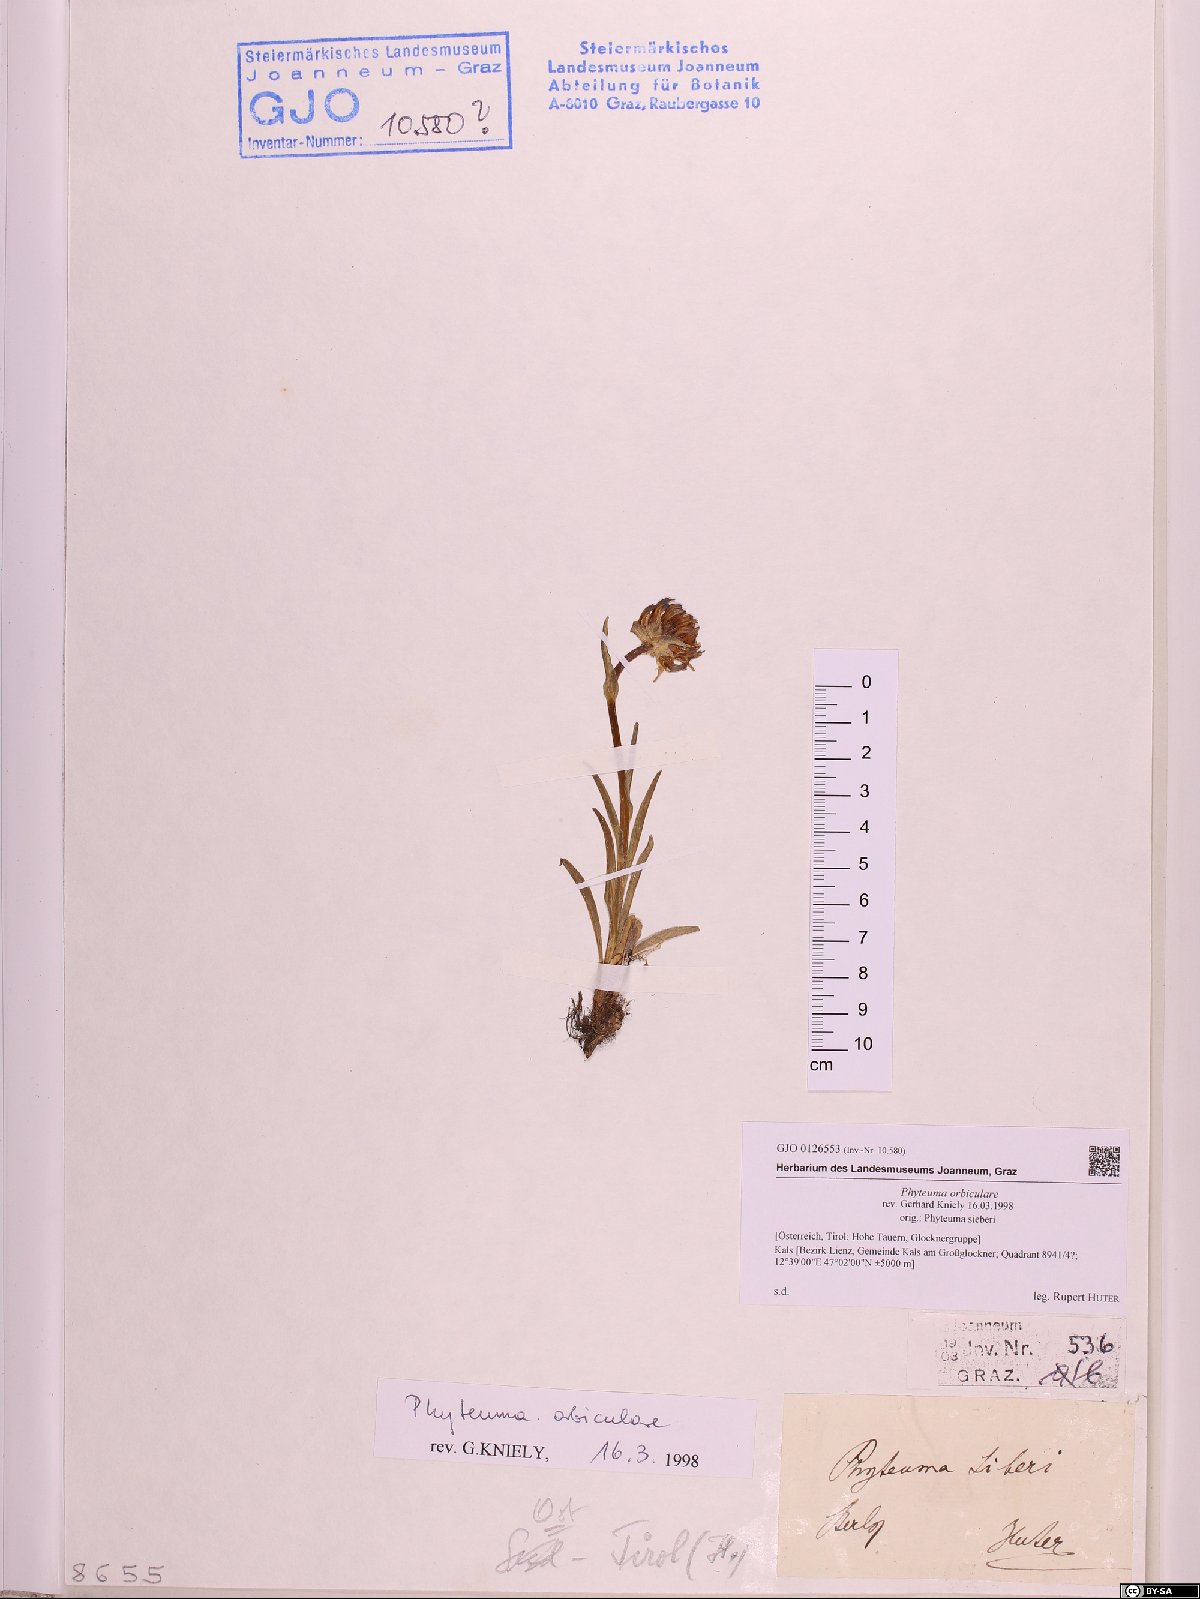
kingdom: Plantae
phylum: Tracheophyta
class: Magnoliopsida
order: Asterales
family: Campanulaceae
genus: Phyteuma
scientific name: Phyteuma orbiculare
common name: Round-headed rampion
